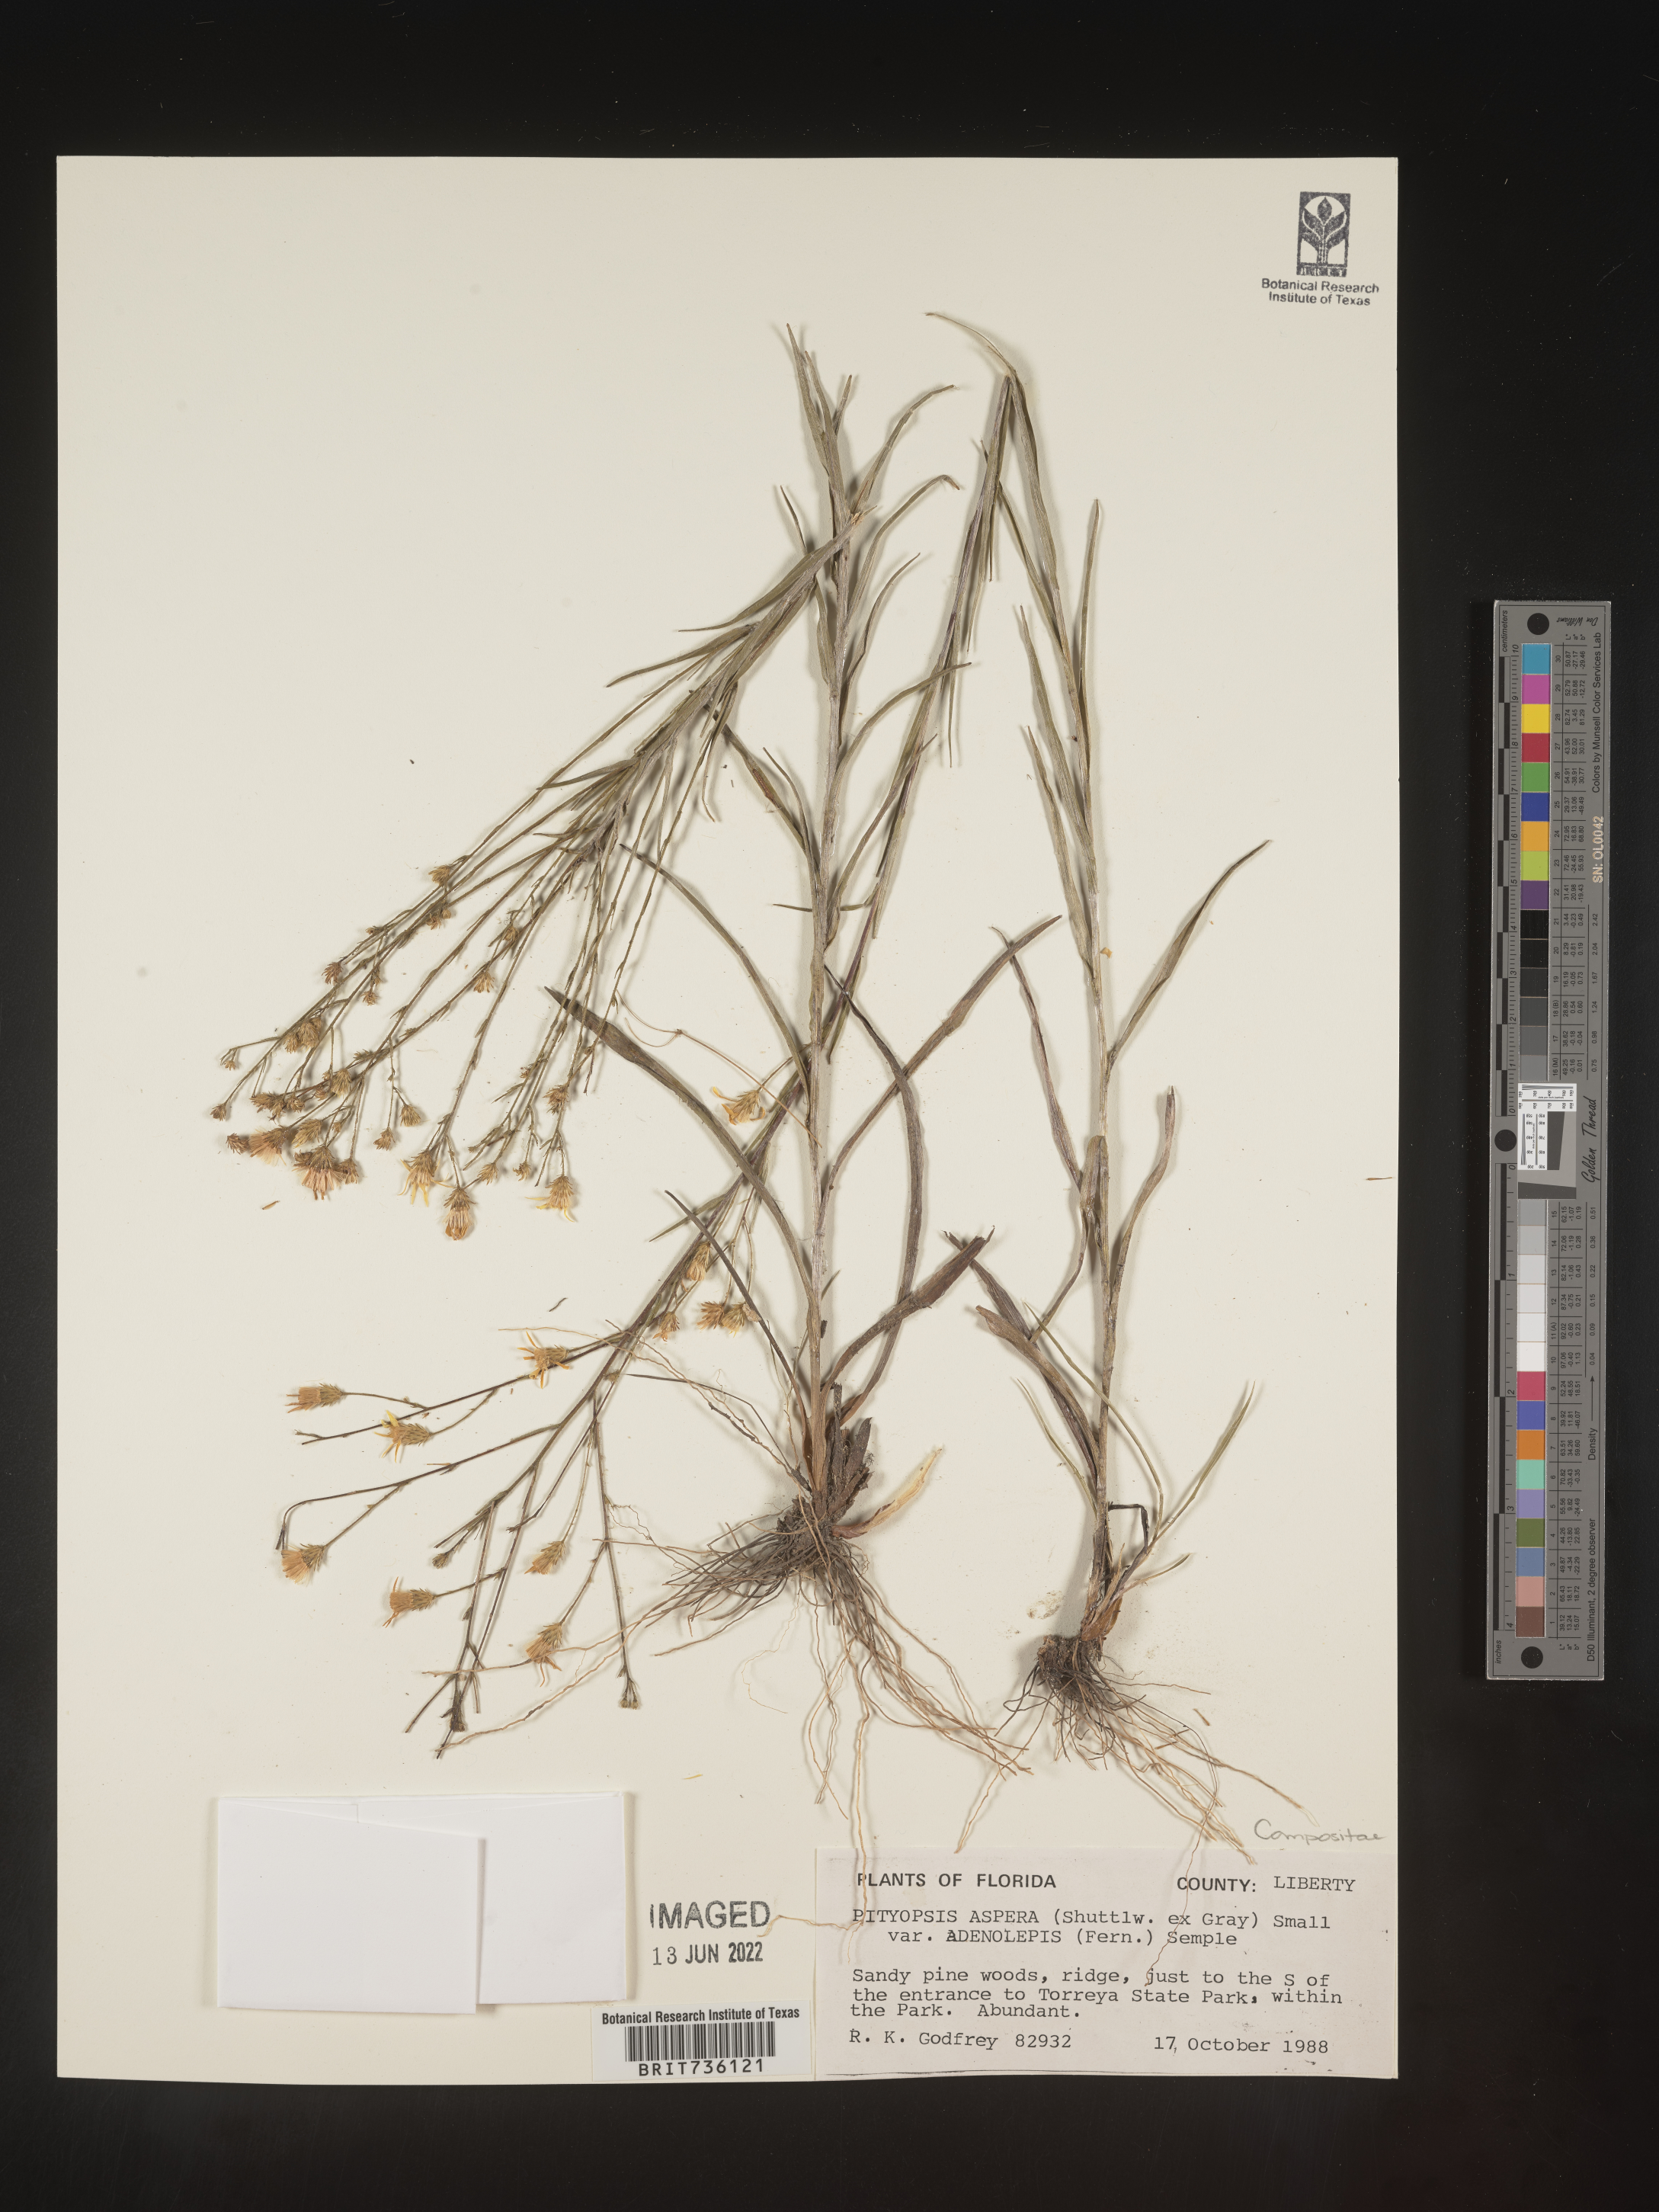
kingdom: Plantae
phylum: Tracheophyta
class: Magnoliopsida
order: Asterales
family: Asteraceae
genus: Pityopsis
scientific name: Pityopsis aspera
